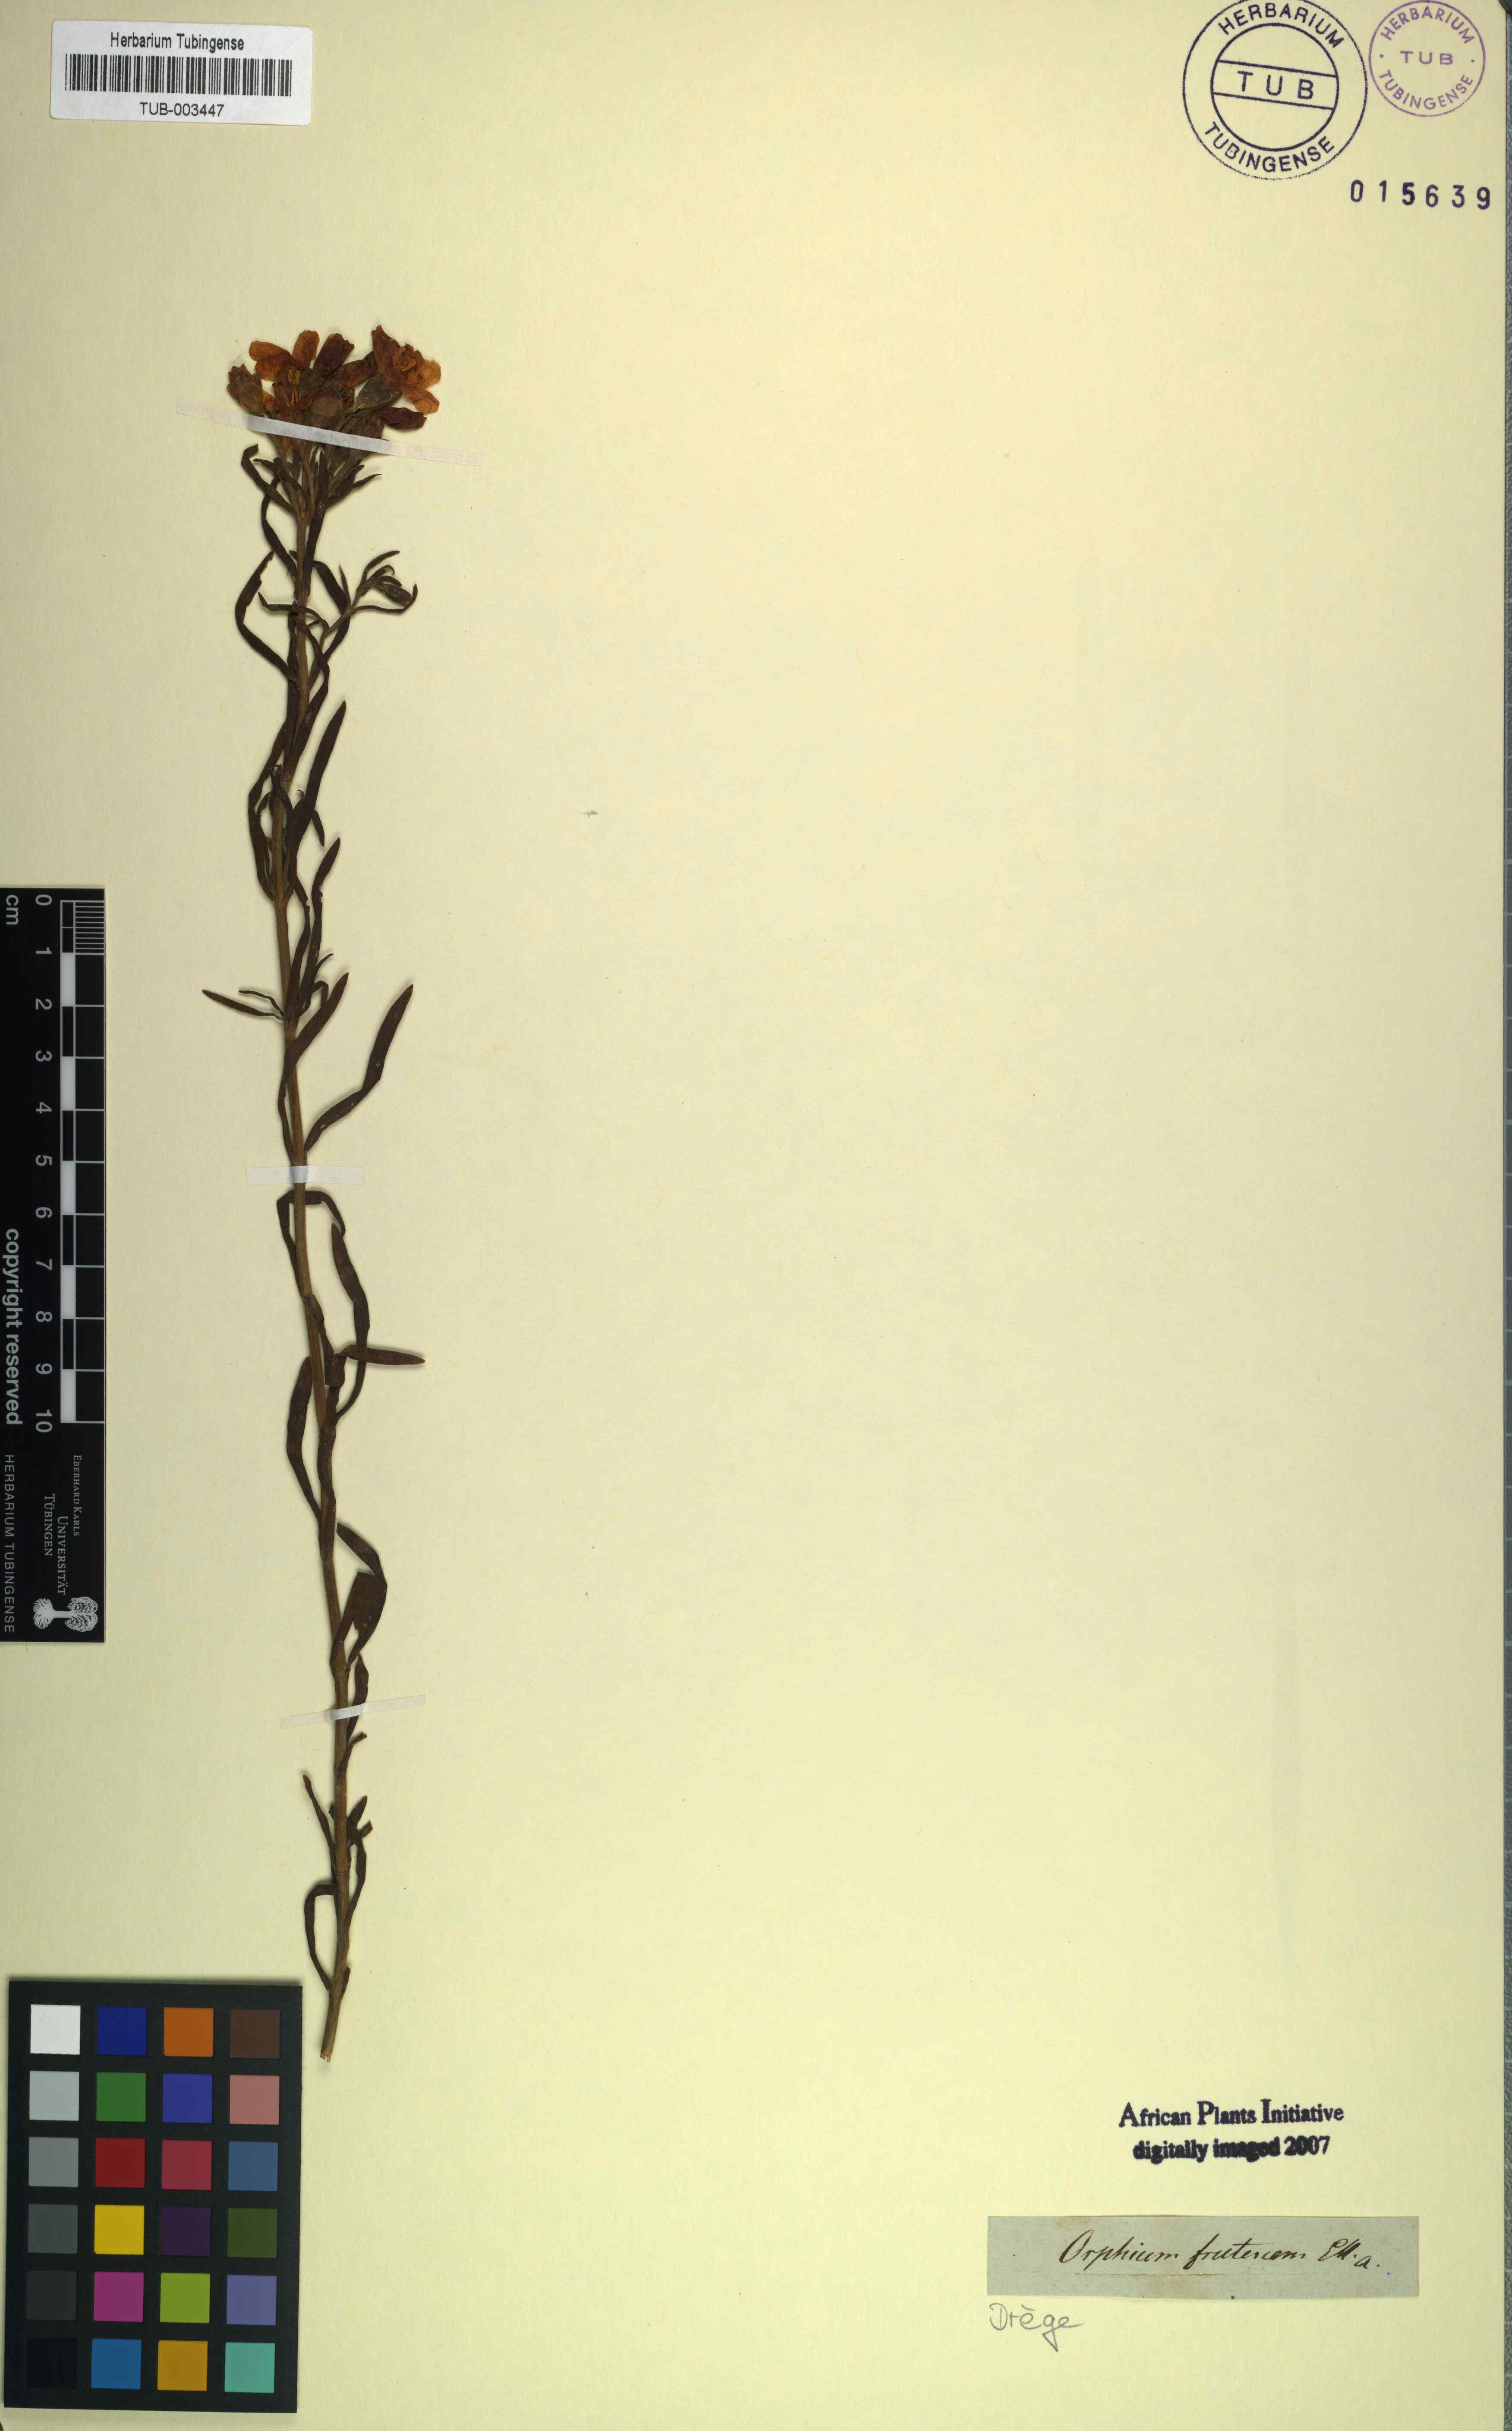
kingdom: Plantae
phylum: Tracheophyta
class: Magnoliopsida
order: Gentianales
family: Gentianaceae
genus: Orphium
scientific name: Orphium frutescens
